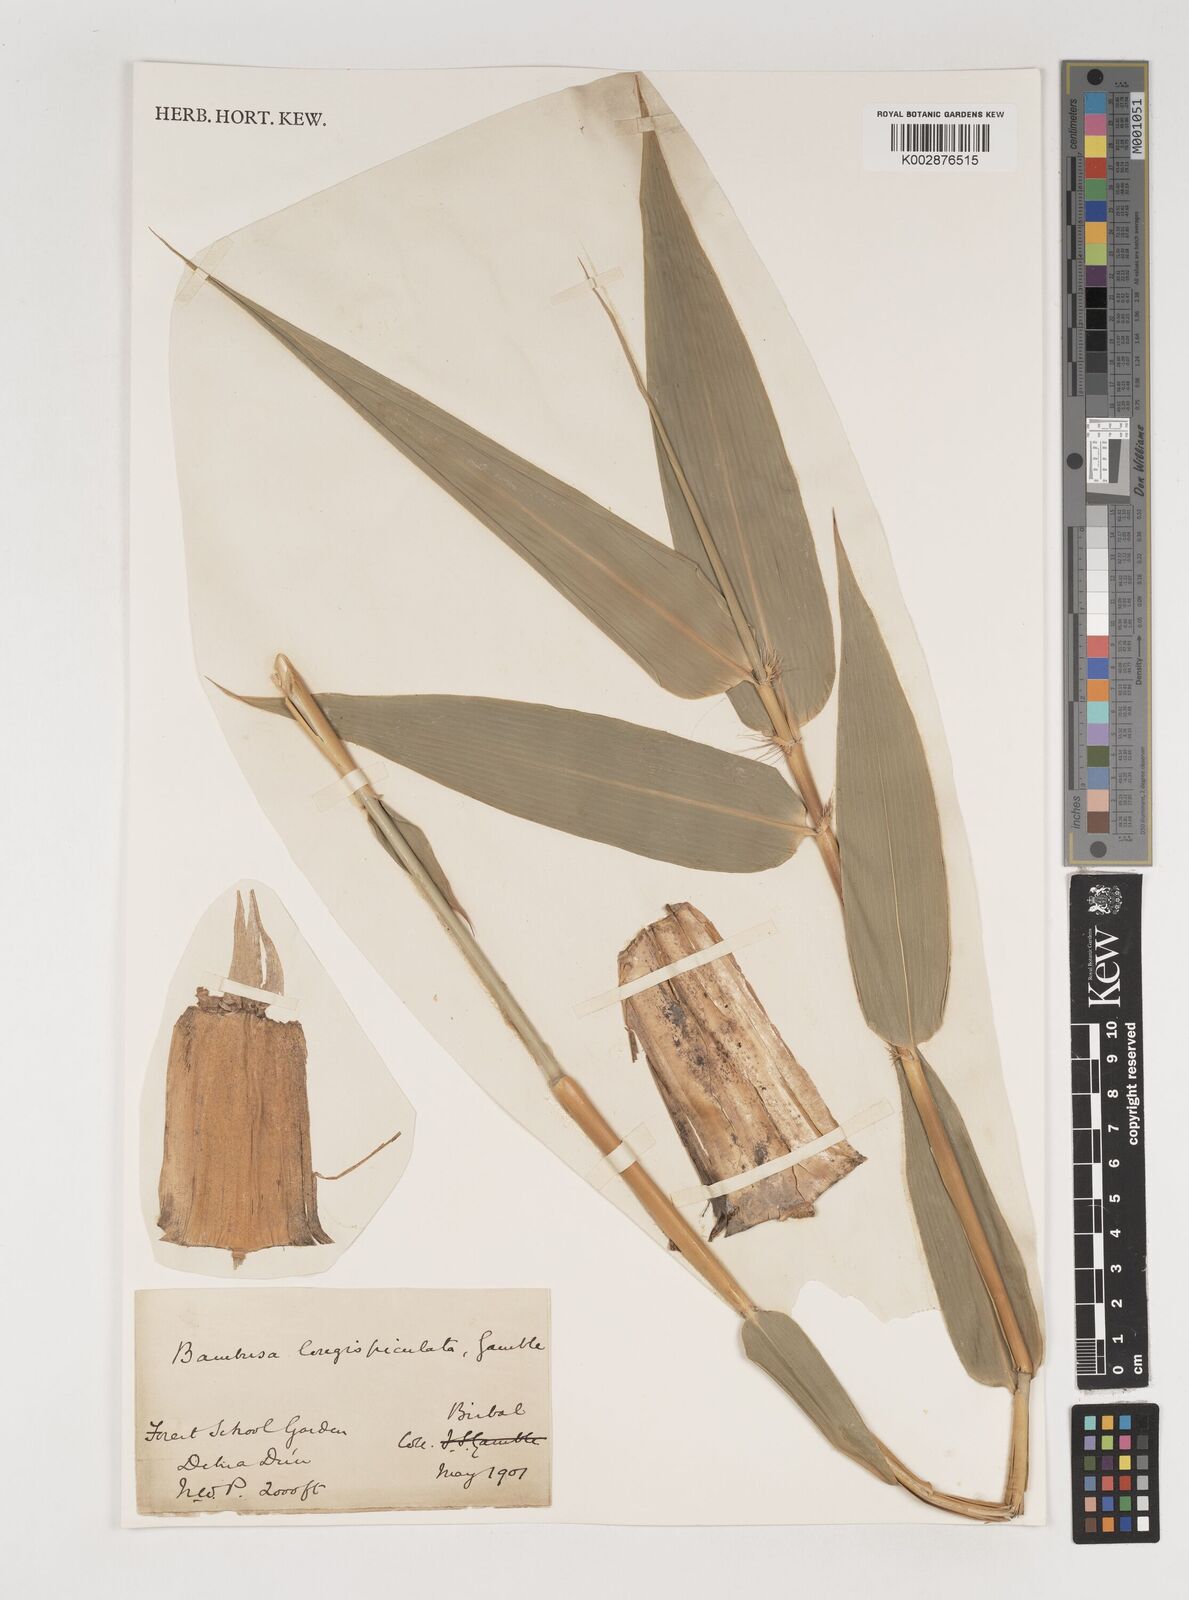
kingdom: Plantae
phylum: Tracheophyta
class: Liliopsida
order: Poales
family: Poaceae
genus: Bambusa
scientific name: Bambusa longispiculata
